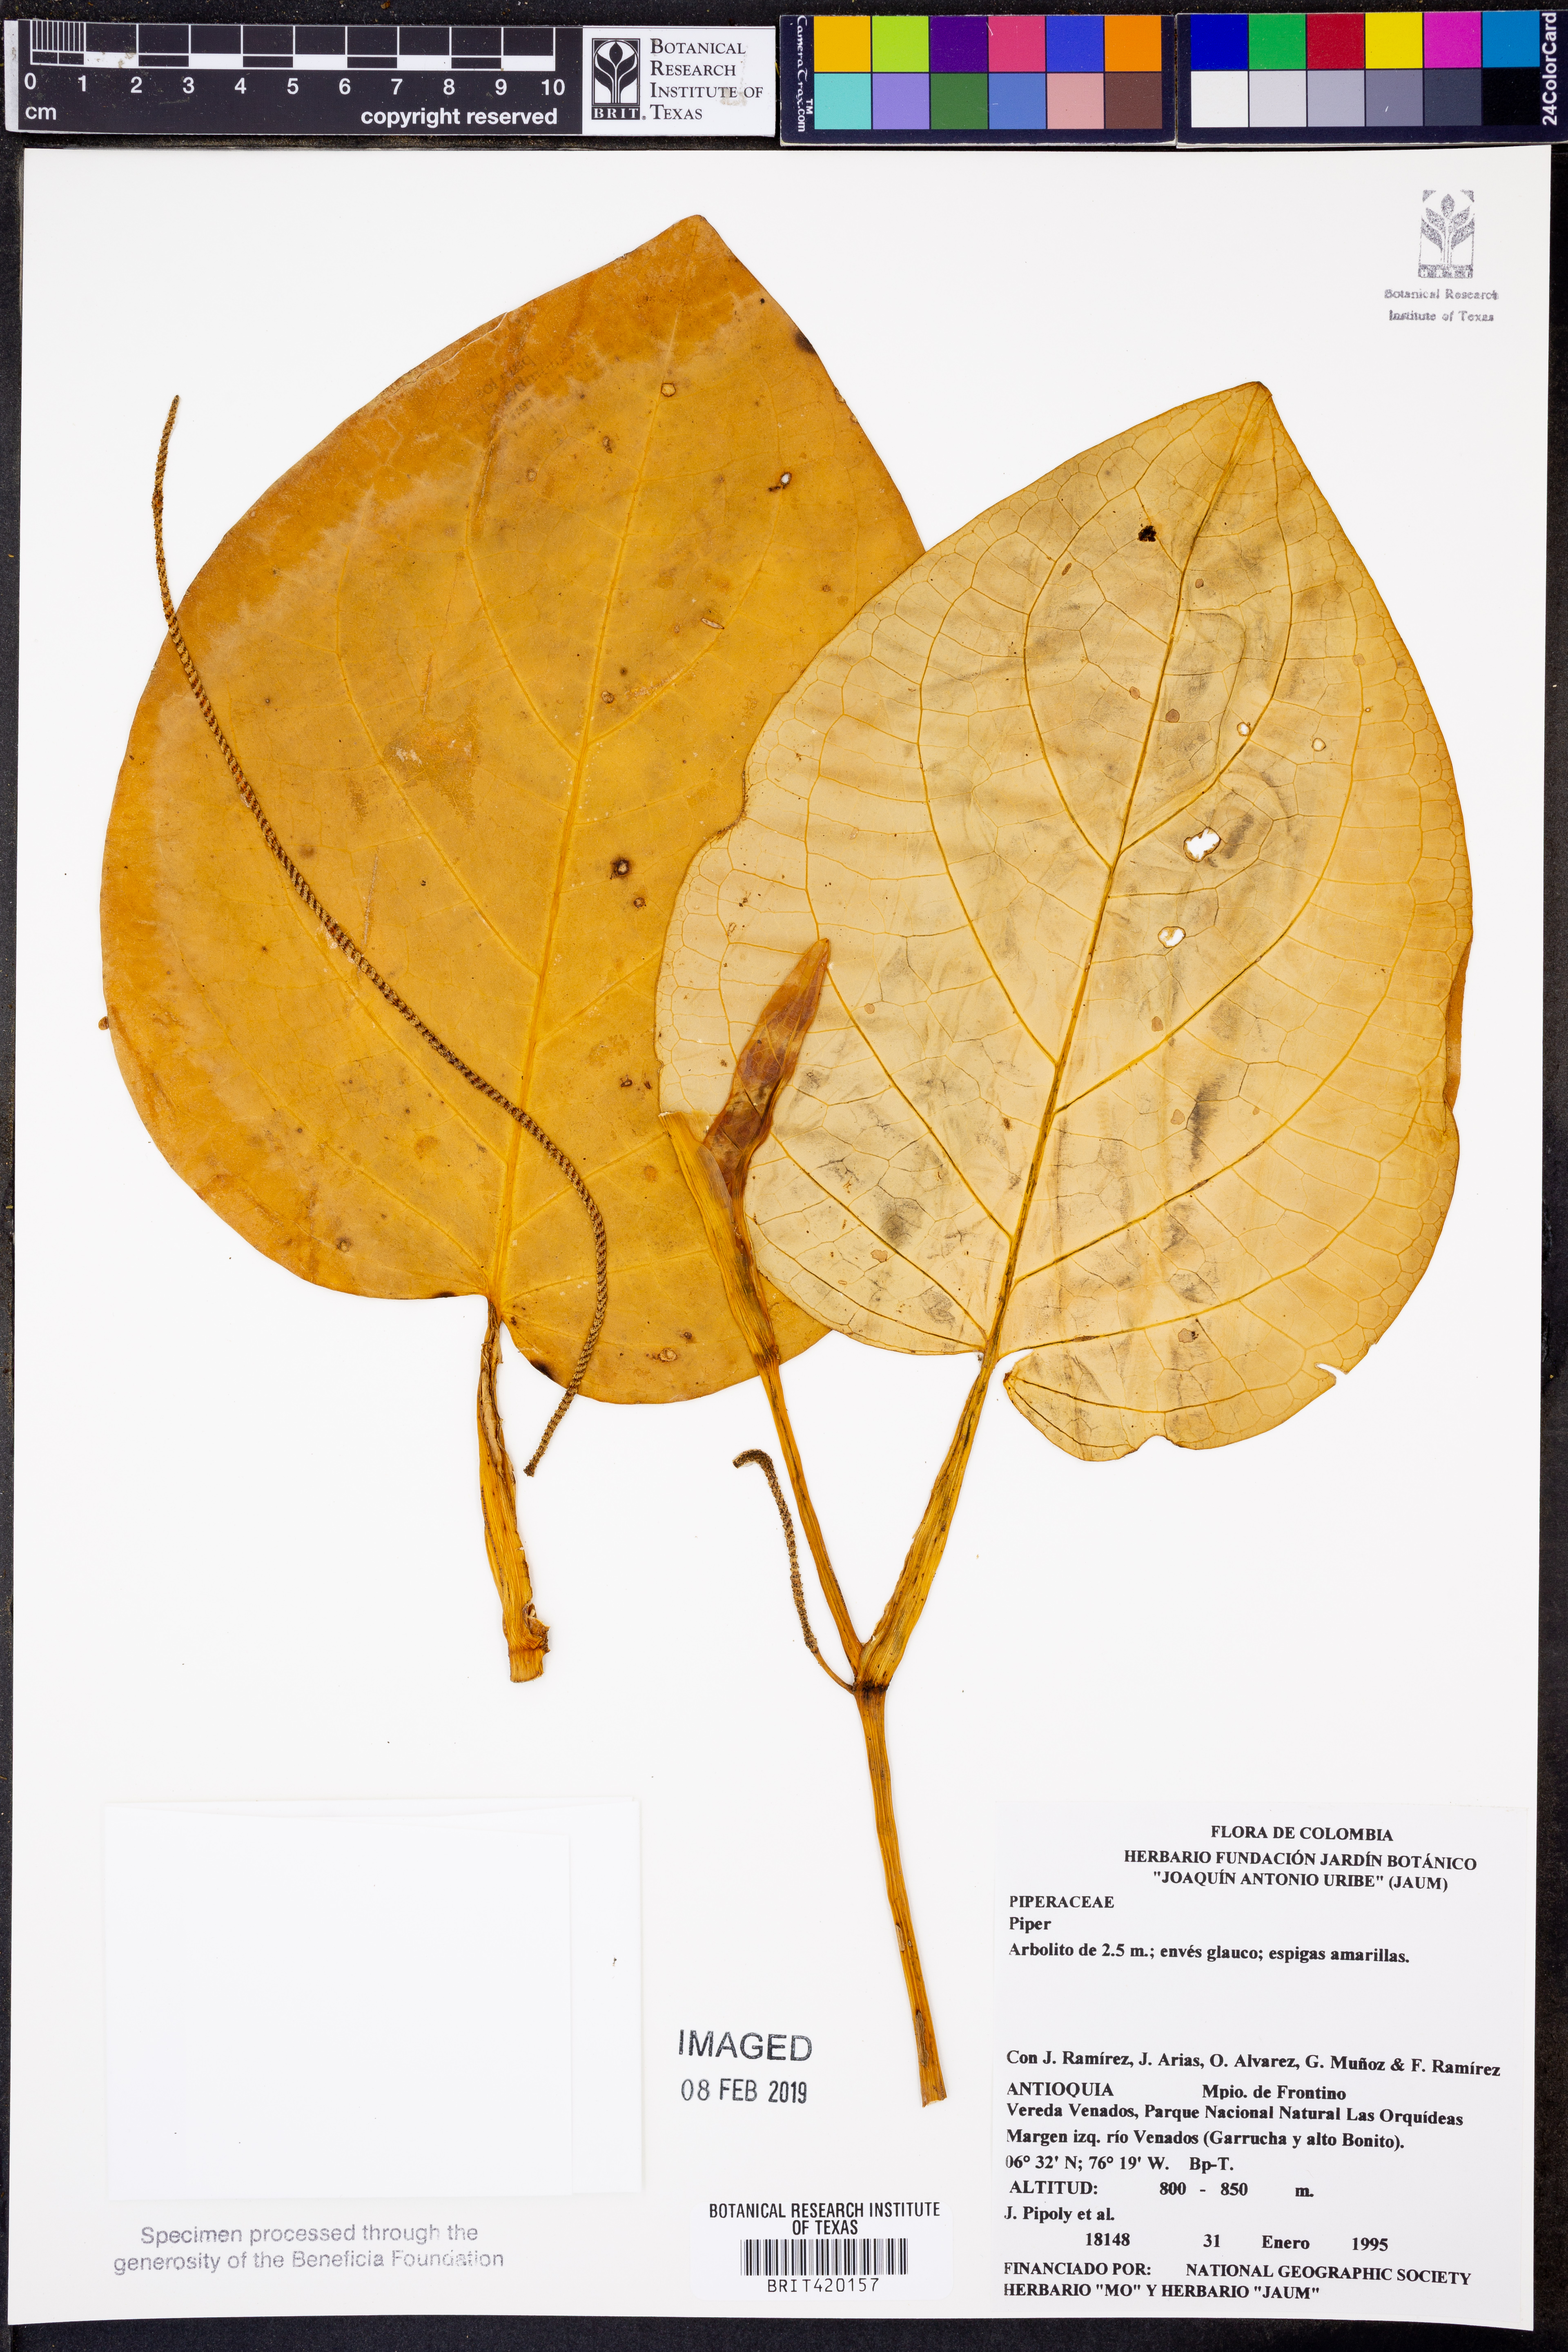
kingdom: Plantae
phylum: Tracheophyta
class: Magnoliopsida
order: Piperales
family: Piperaceae
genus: Piper
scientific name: Piper
